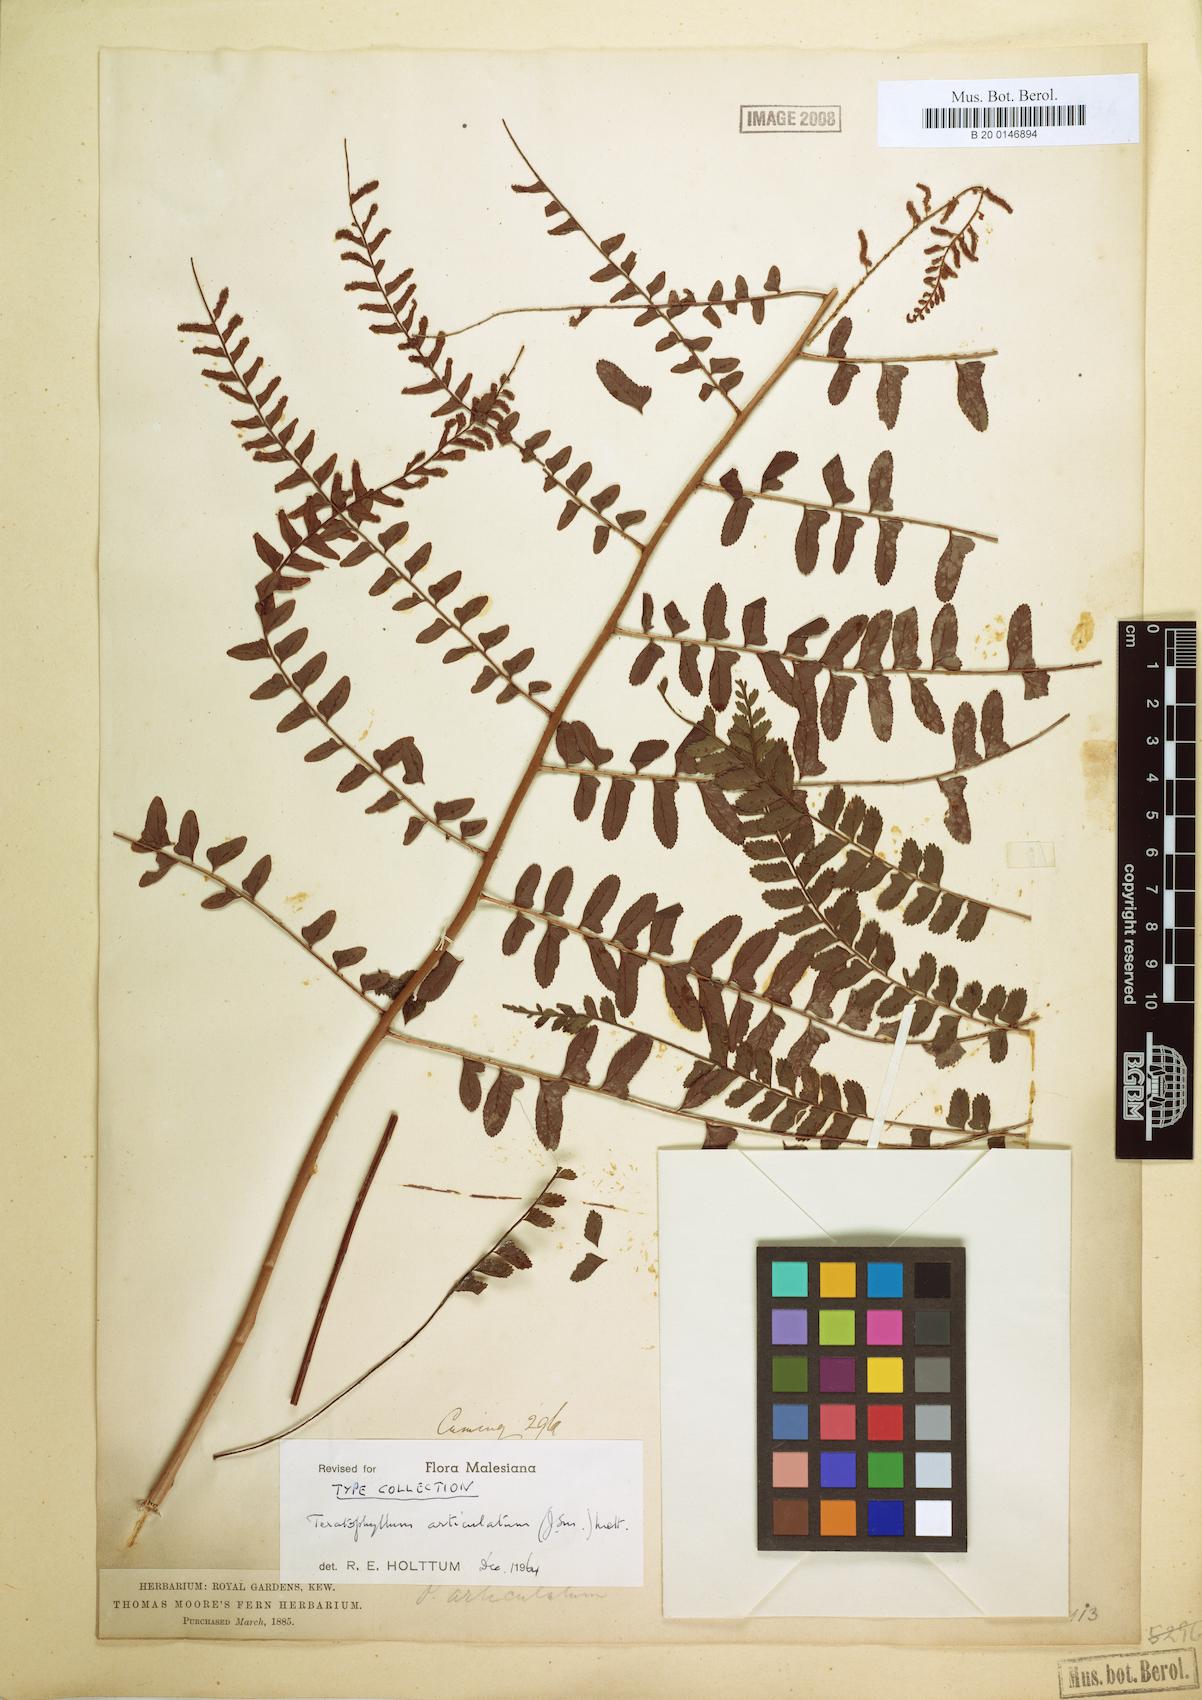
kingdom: Plantae
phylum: Tracheophyta
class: Polypodiopsida
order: Polypodiales
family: Dryopteridaceae
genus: Arthrobotrya
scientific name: Arthrobotrya articulata
